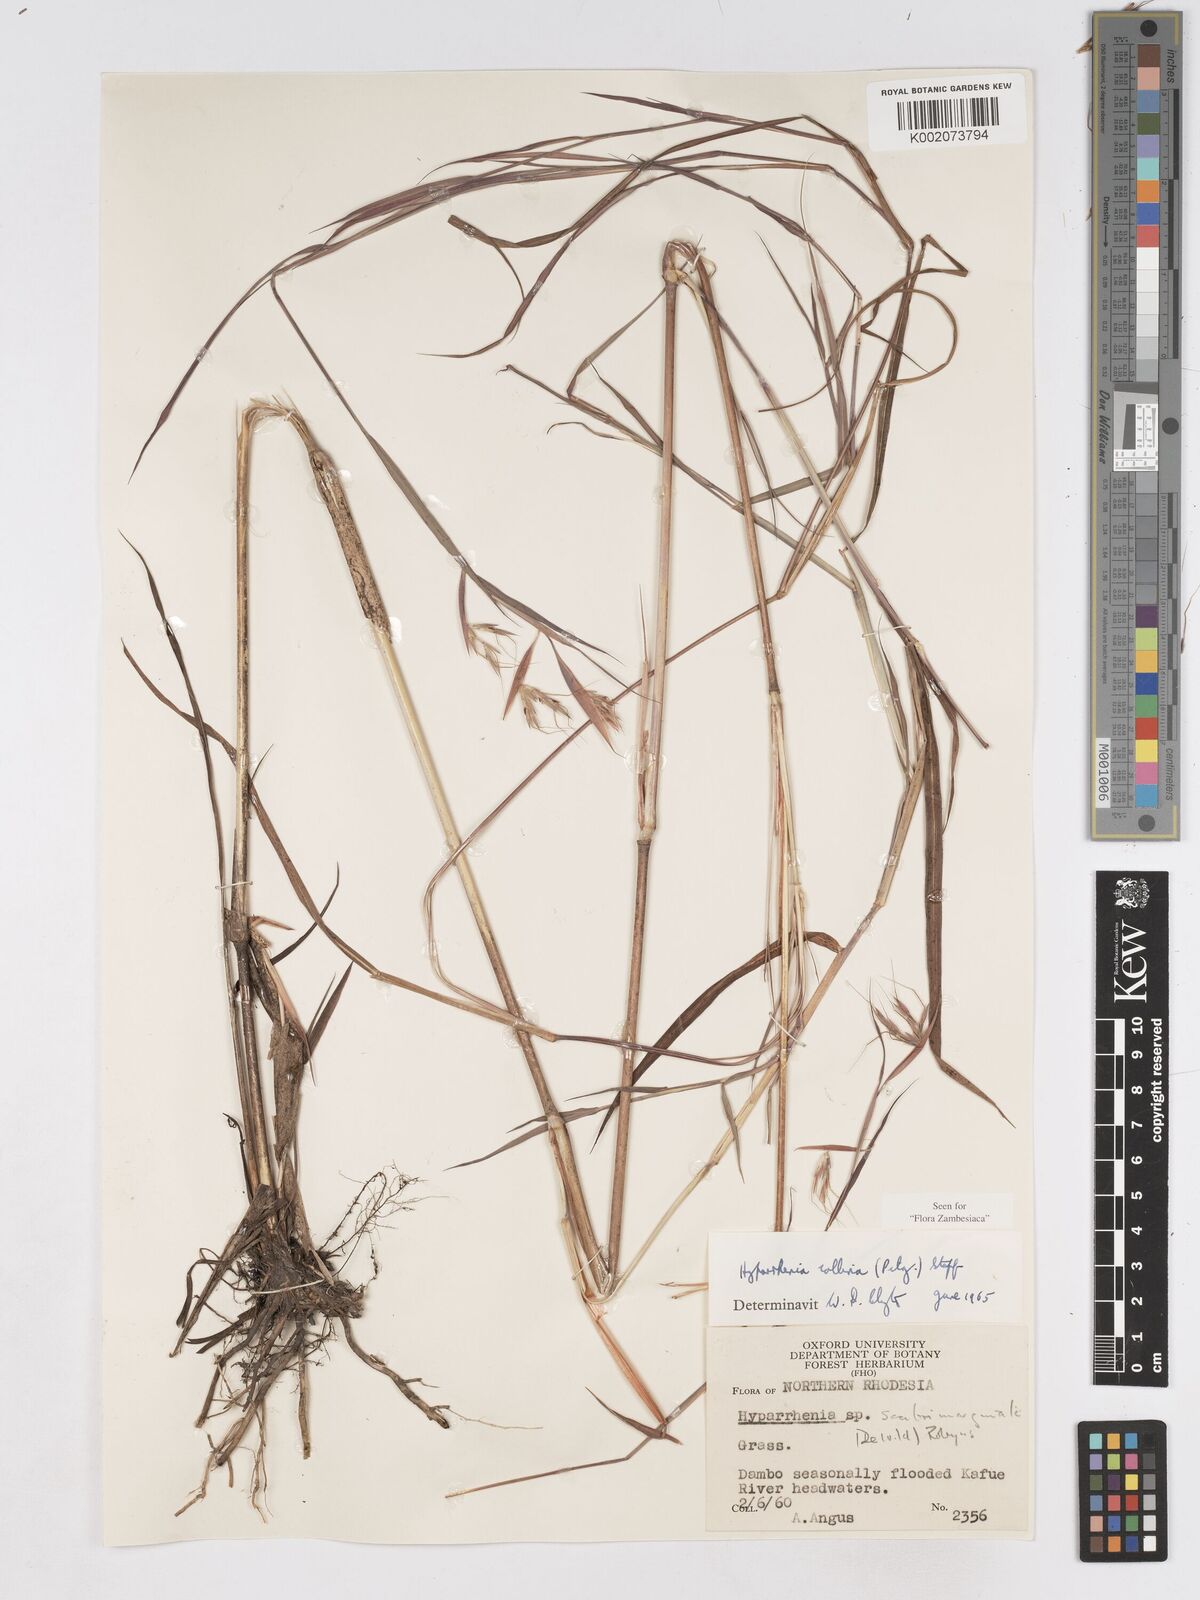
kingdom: Plantae
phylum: Tracheophyta
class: Liliopsida
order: Poales
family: Poaceae
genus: Hyparrhenia
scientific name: Hyparrhenia collina
